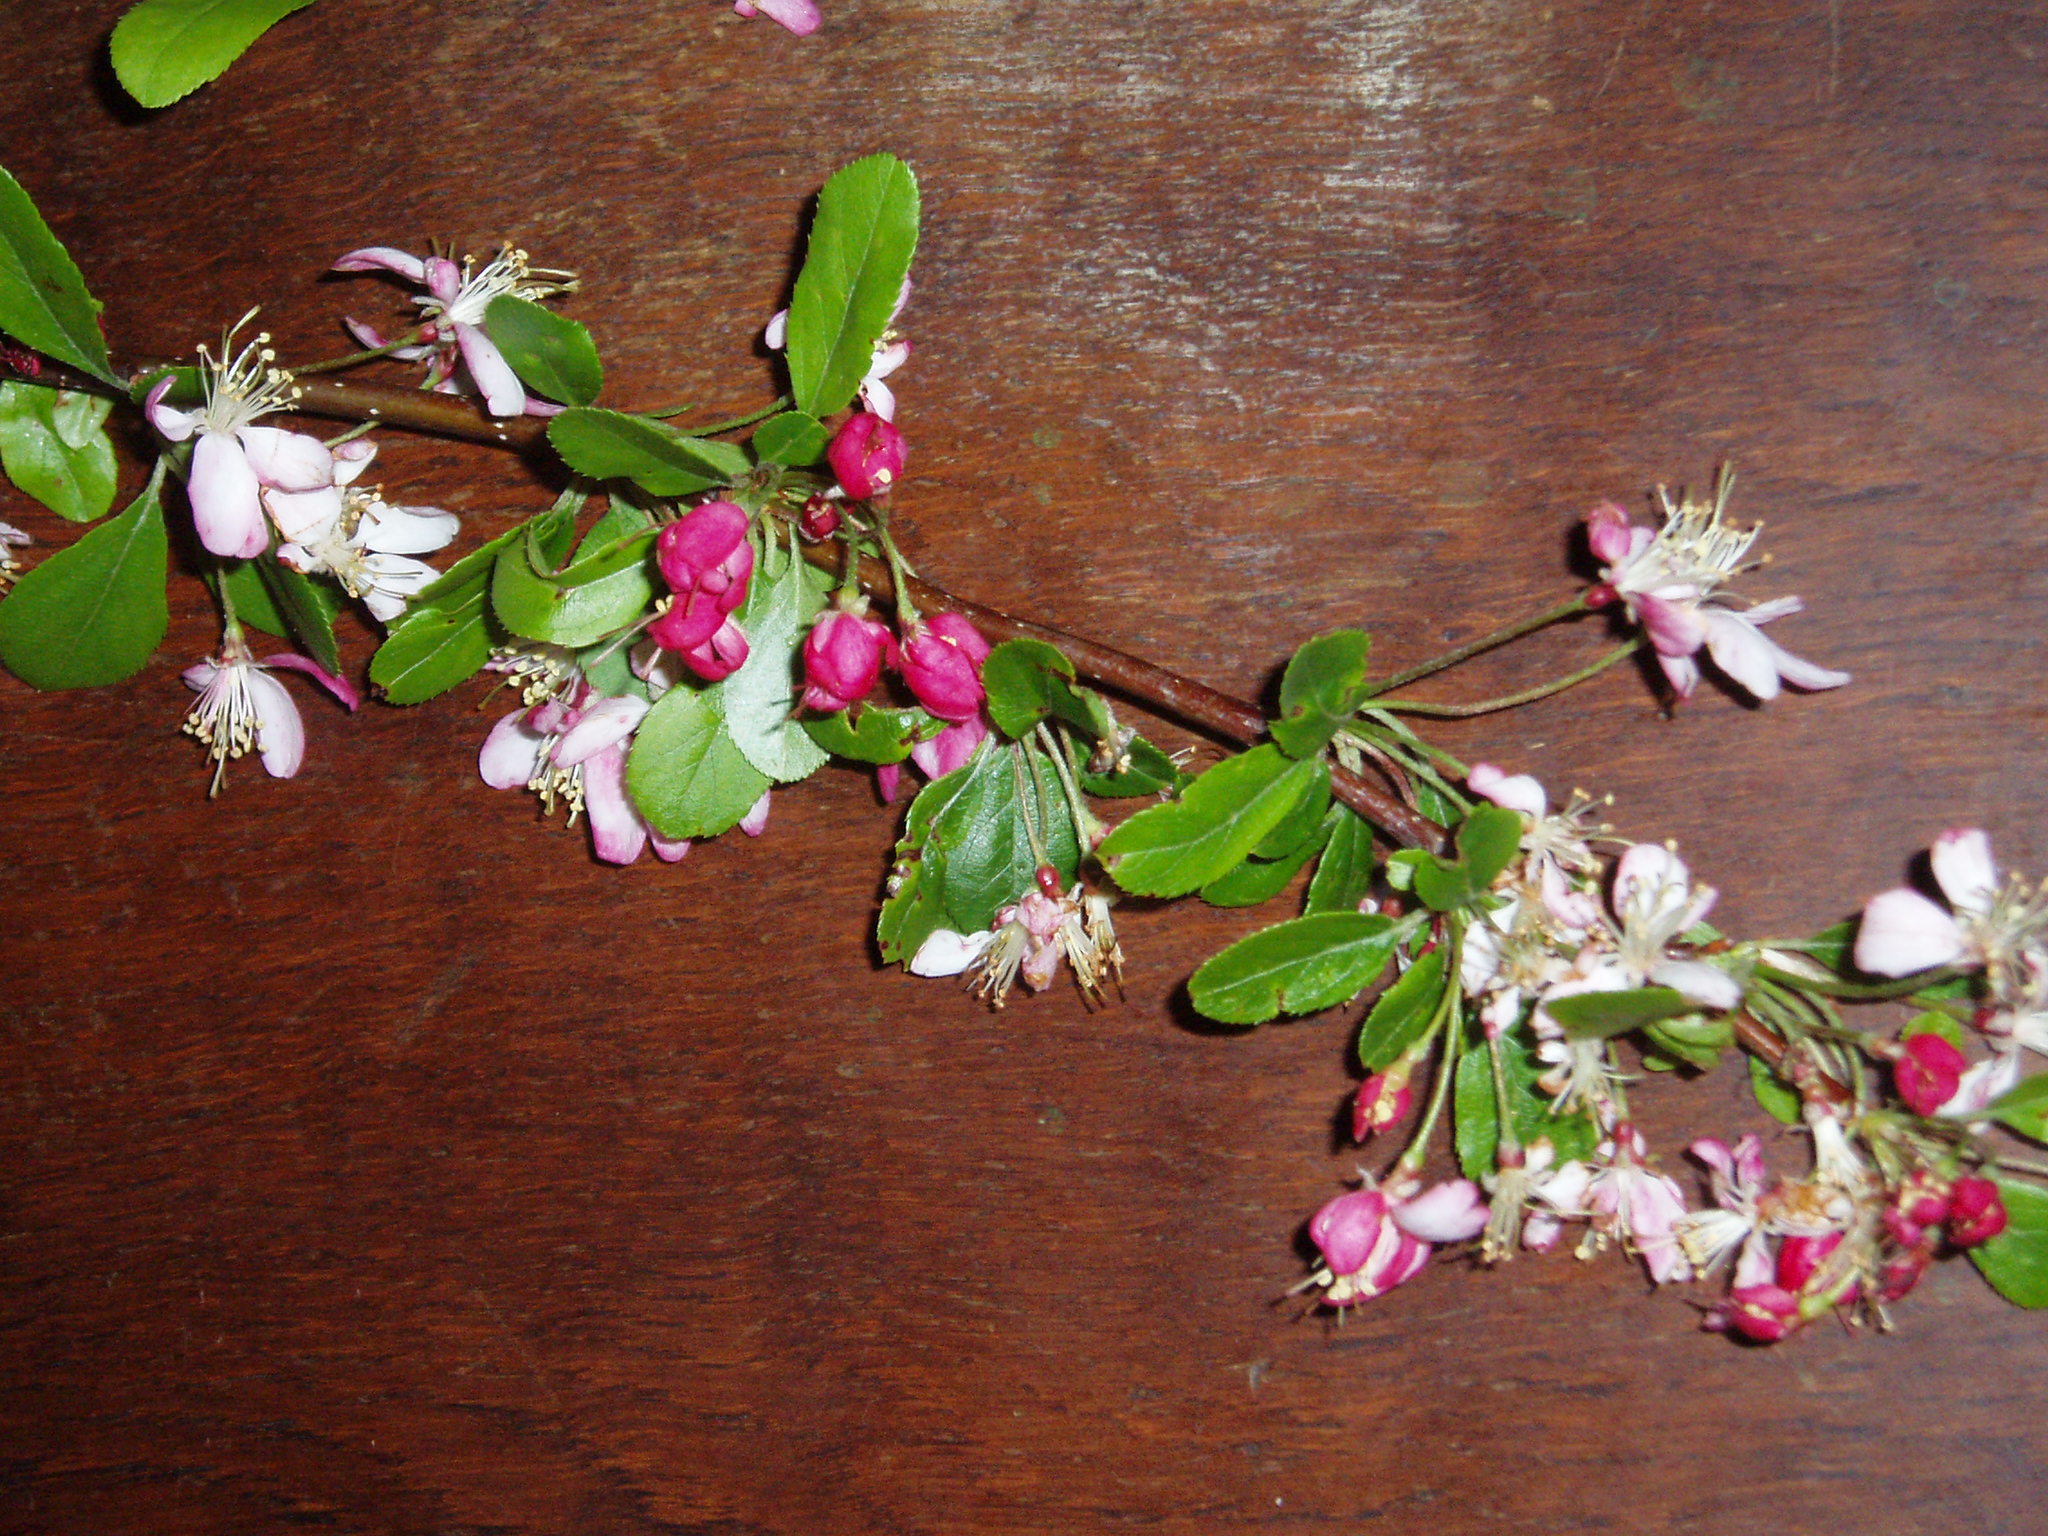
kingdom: Plantae
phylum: Tracheophyta
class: Magnoliopsida
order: Rosales
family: Rosaceae
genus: Malus
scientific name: Malus floribunda
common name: Japanese crab
